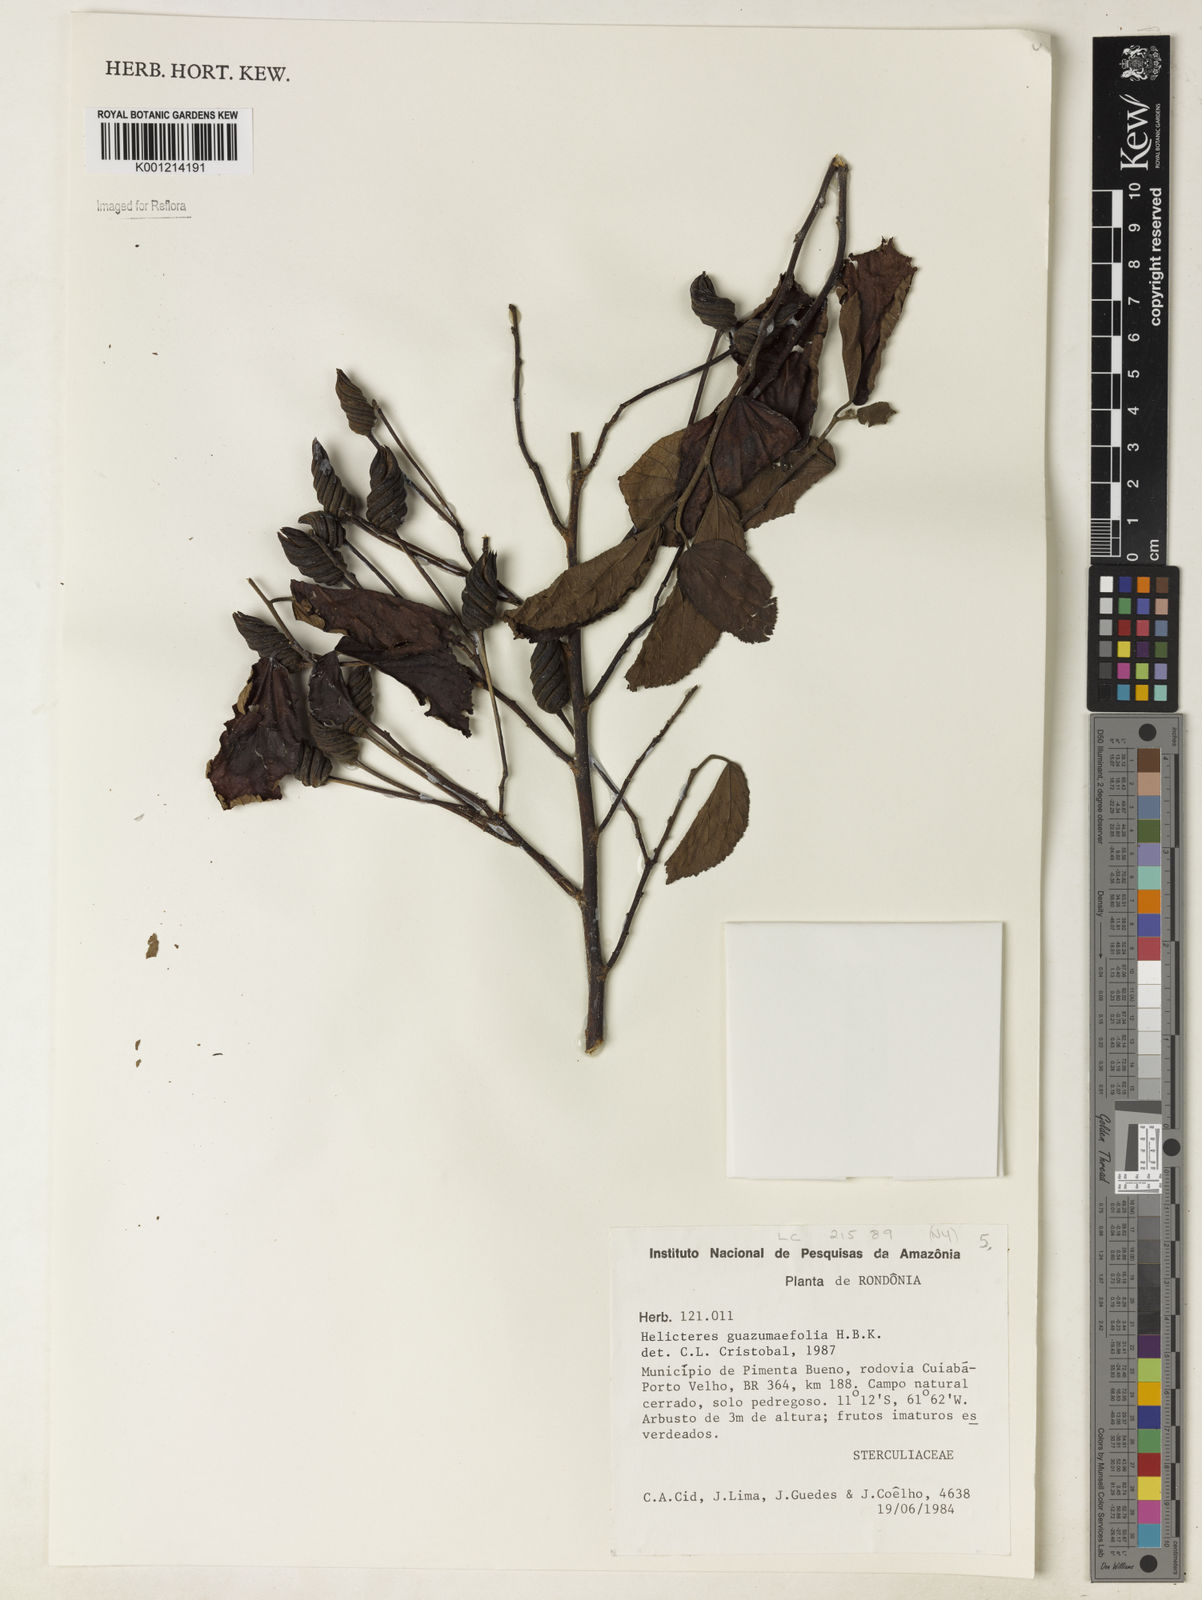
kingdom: Plantae
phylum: Tracheophyta
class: Magnoliopsida
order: Malvales
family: Malvaceae
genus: Helicteres
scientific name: Helicteres guazumifolia
